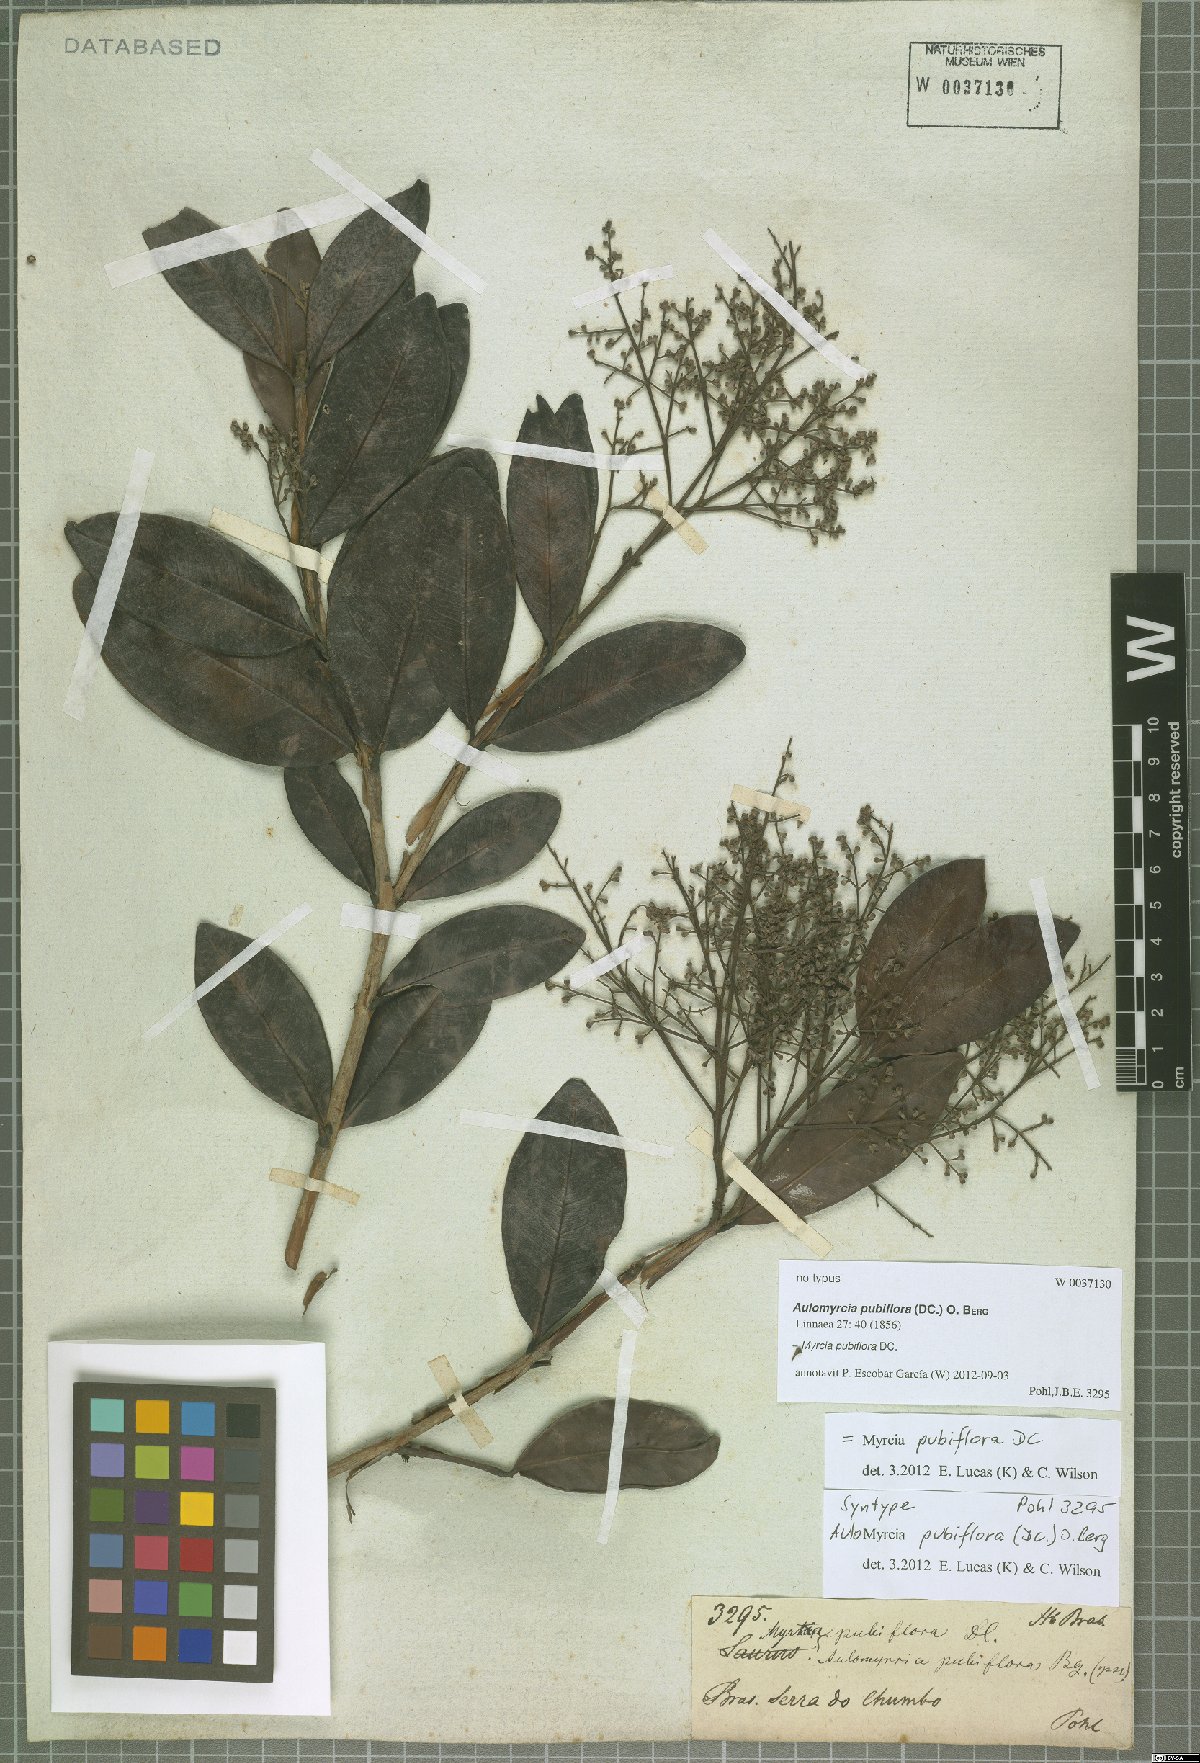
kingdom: Plantae
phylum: Tracheophyta
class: Magnoliopsida
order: Myrtales
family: Myrtaceae
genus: Myrcia
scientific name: Myrcia pubiflora
